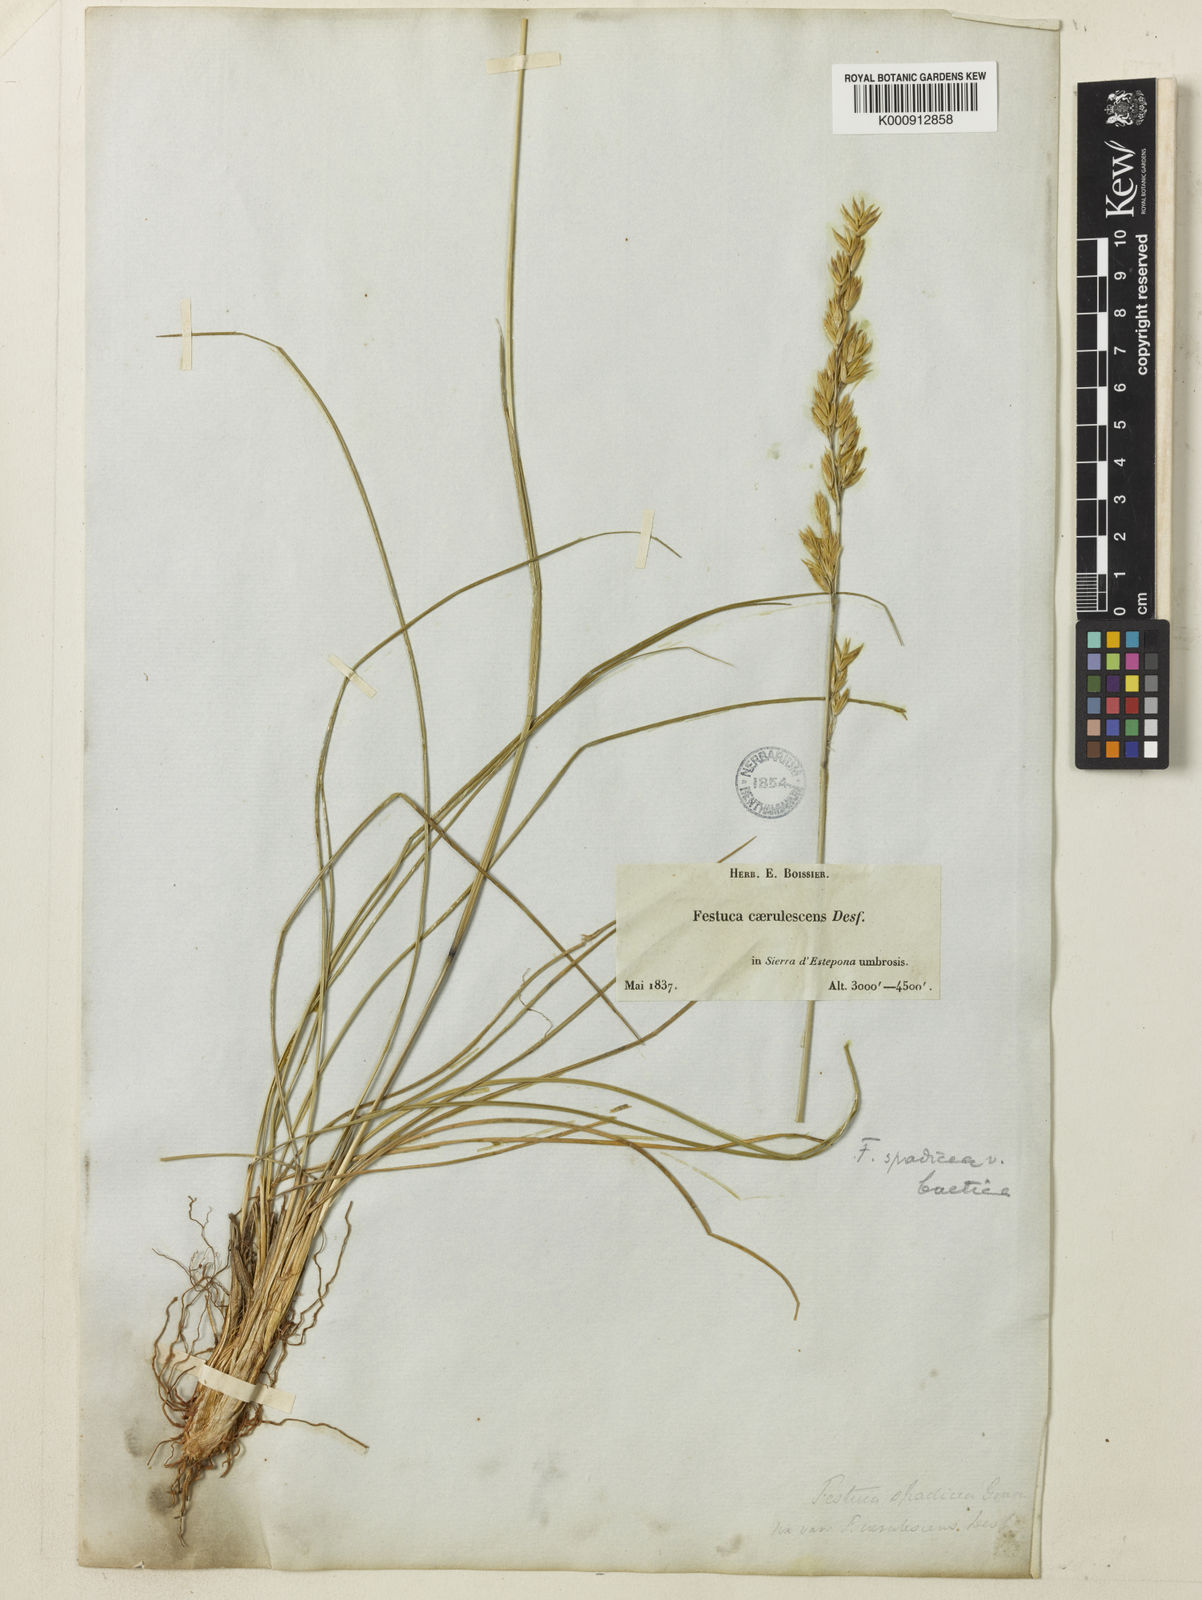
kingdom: Plantae
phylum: Tracheophyta
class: Liliopsida
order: Poales
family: Poaceae
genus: Patzkea
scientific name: Patzkea paniculata
